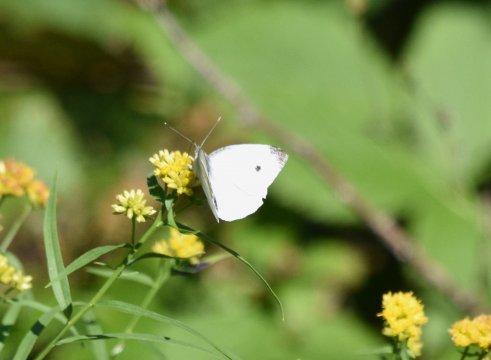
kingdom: Animalia
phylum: Arthropoda
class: Insecta
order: Lepidoptera
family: Pieridae
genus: Pieris
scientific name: Pieris rapae
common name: Cabbage White
